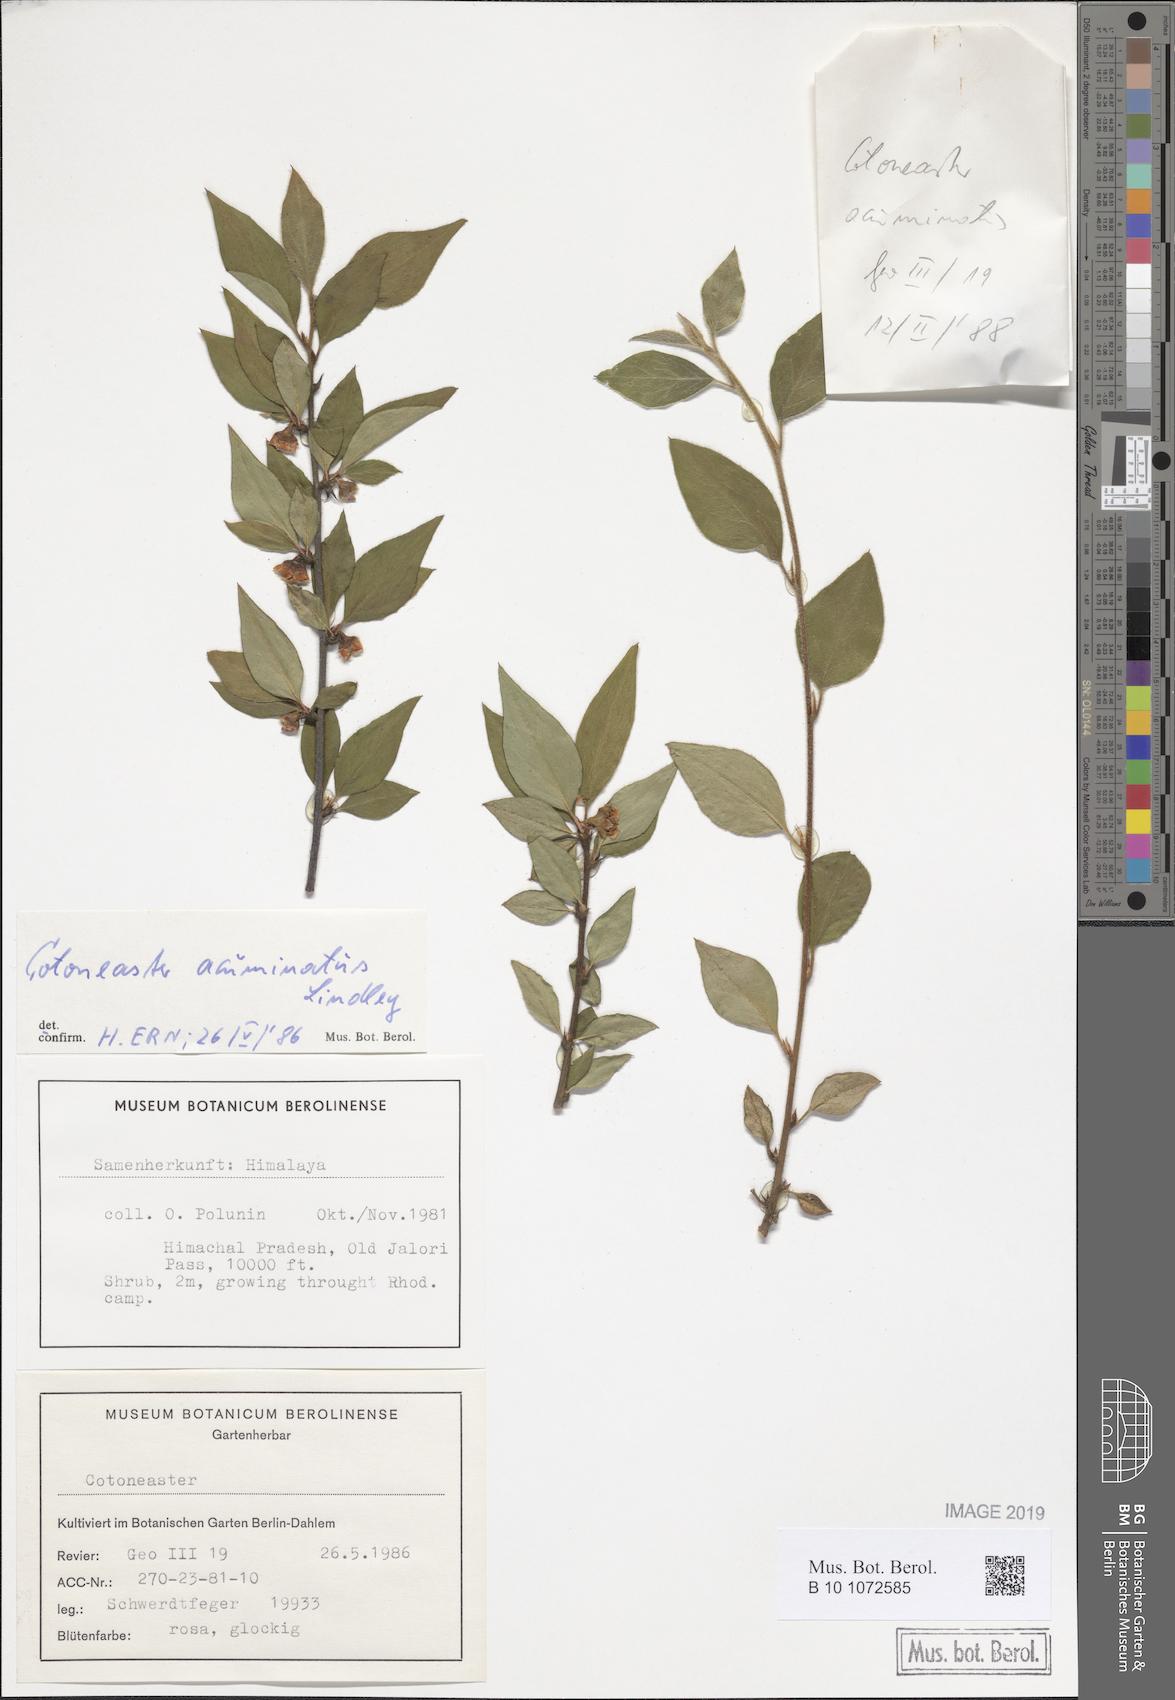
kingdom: Plantae
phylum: Tracheophyta
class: Magnoliopsida
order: Rosales
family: Rosaceae
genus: Cotoneaster
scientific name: Cotoneaster acuminatus
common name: Acuminate cotoneaster
